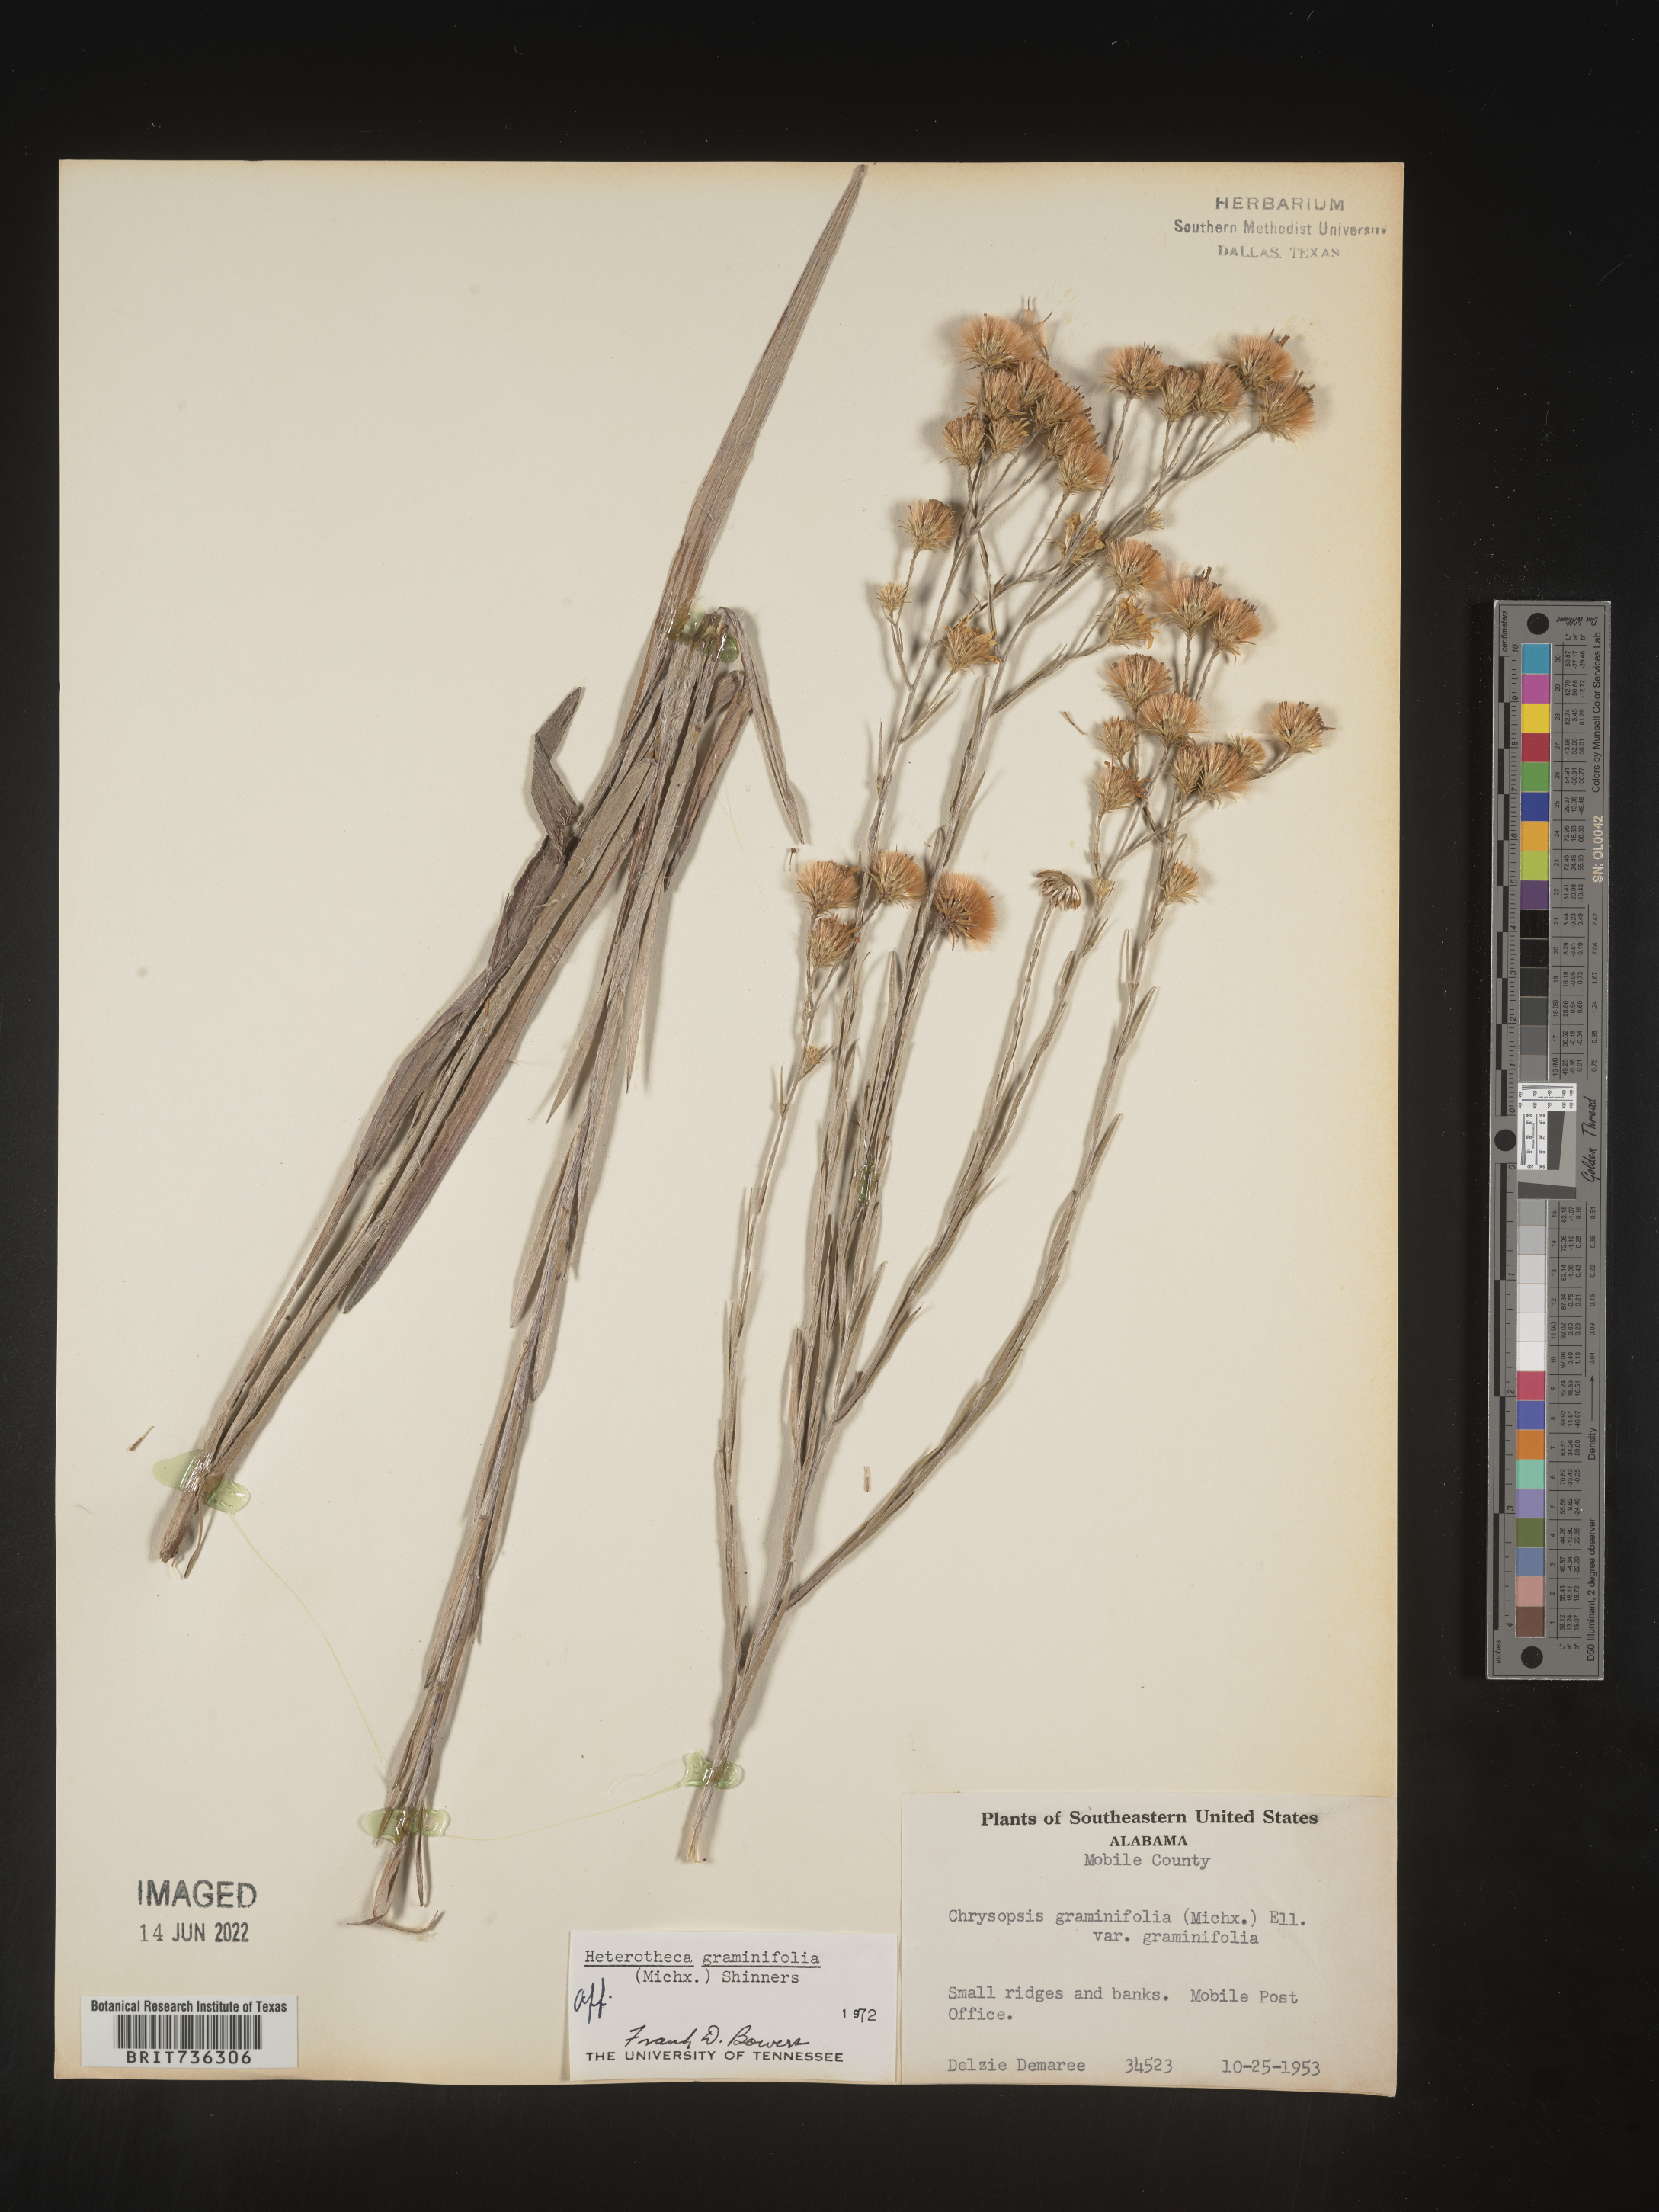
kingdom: Plantae
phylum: Tracheophyta
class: Magnoliopsida
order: Asterales
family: Asteraceae
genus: Pityopsis
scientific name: Pityopsis microcephala
